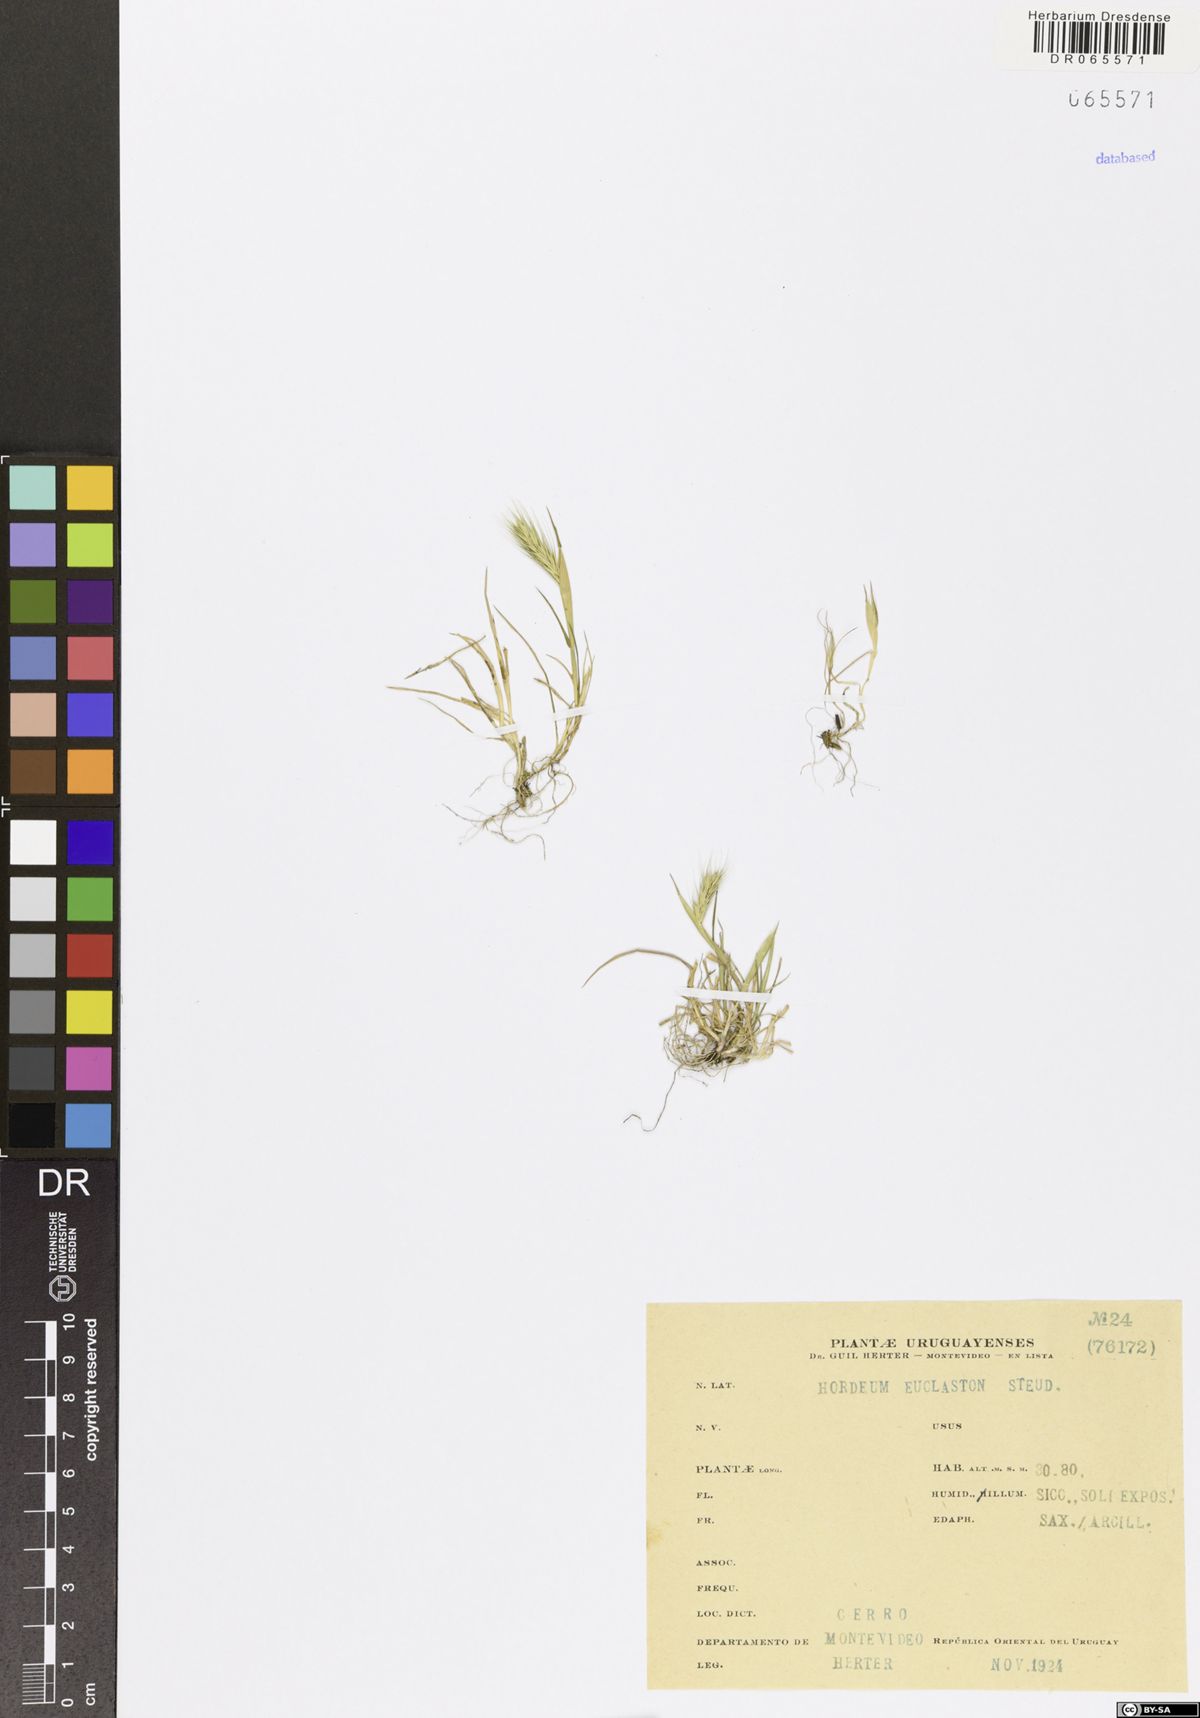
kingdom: Plantae
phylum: Tracheophyta
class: Liliopsida
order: Poales
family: Poaceae
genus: Hordeum
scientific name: Hordeum euclaston
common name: Argentine barley
